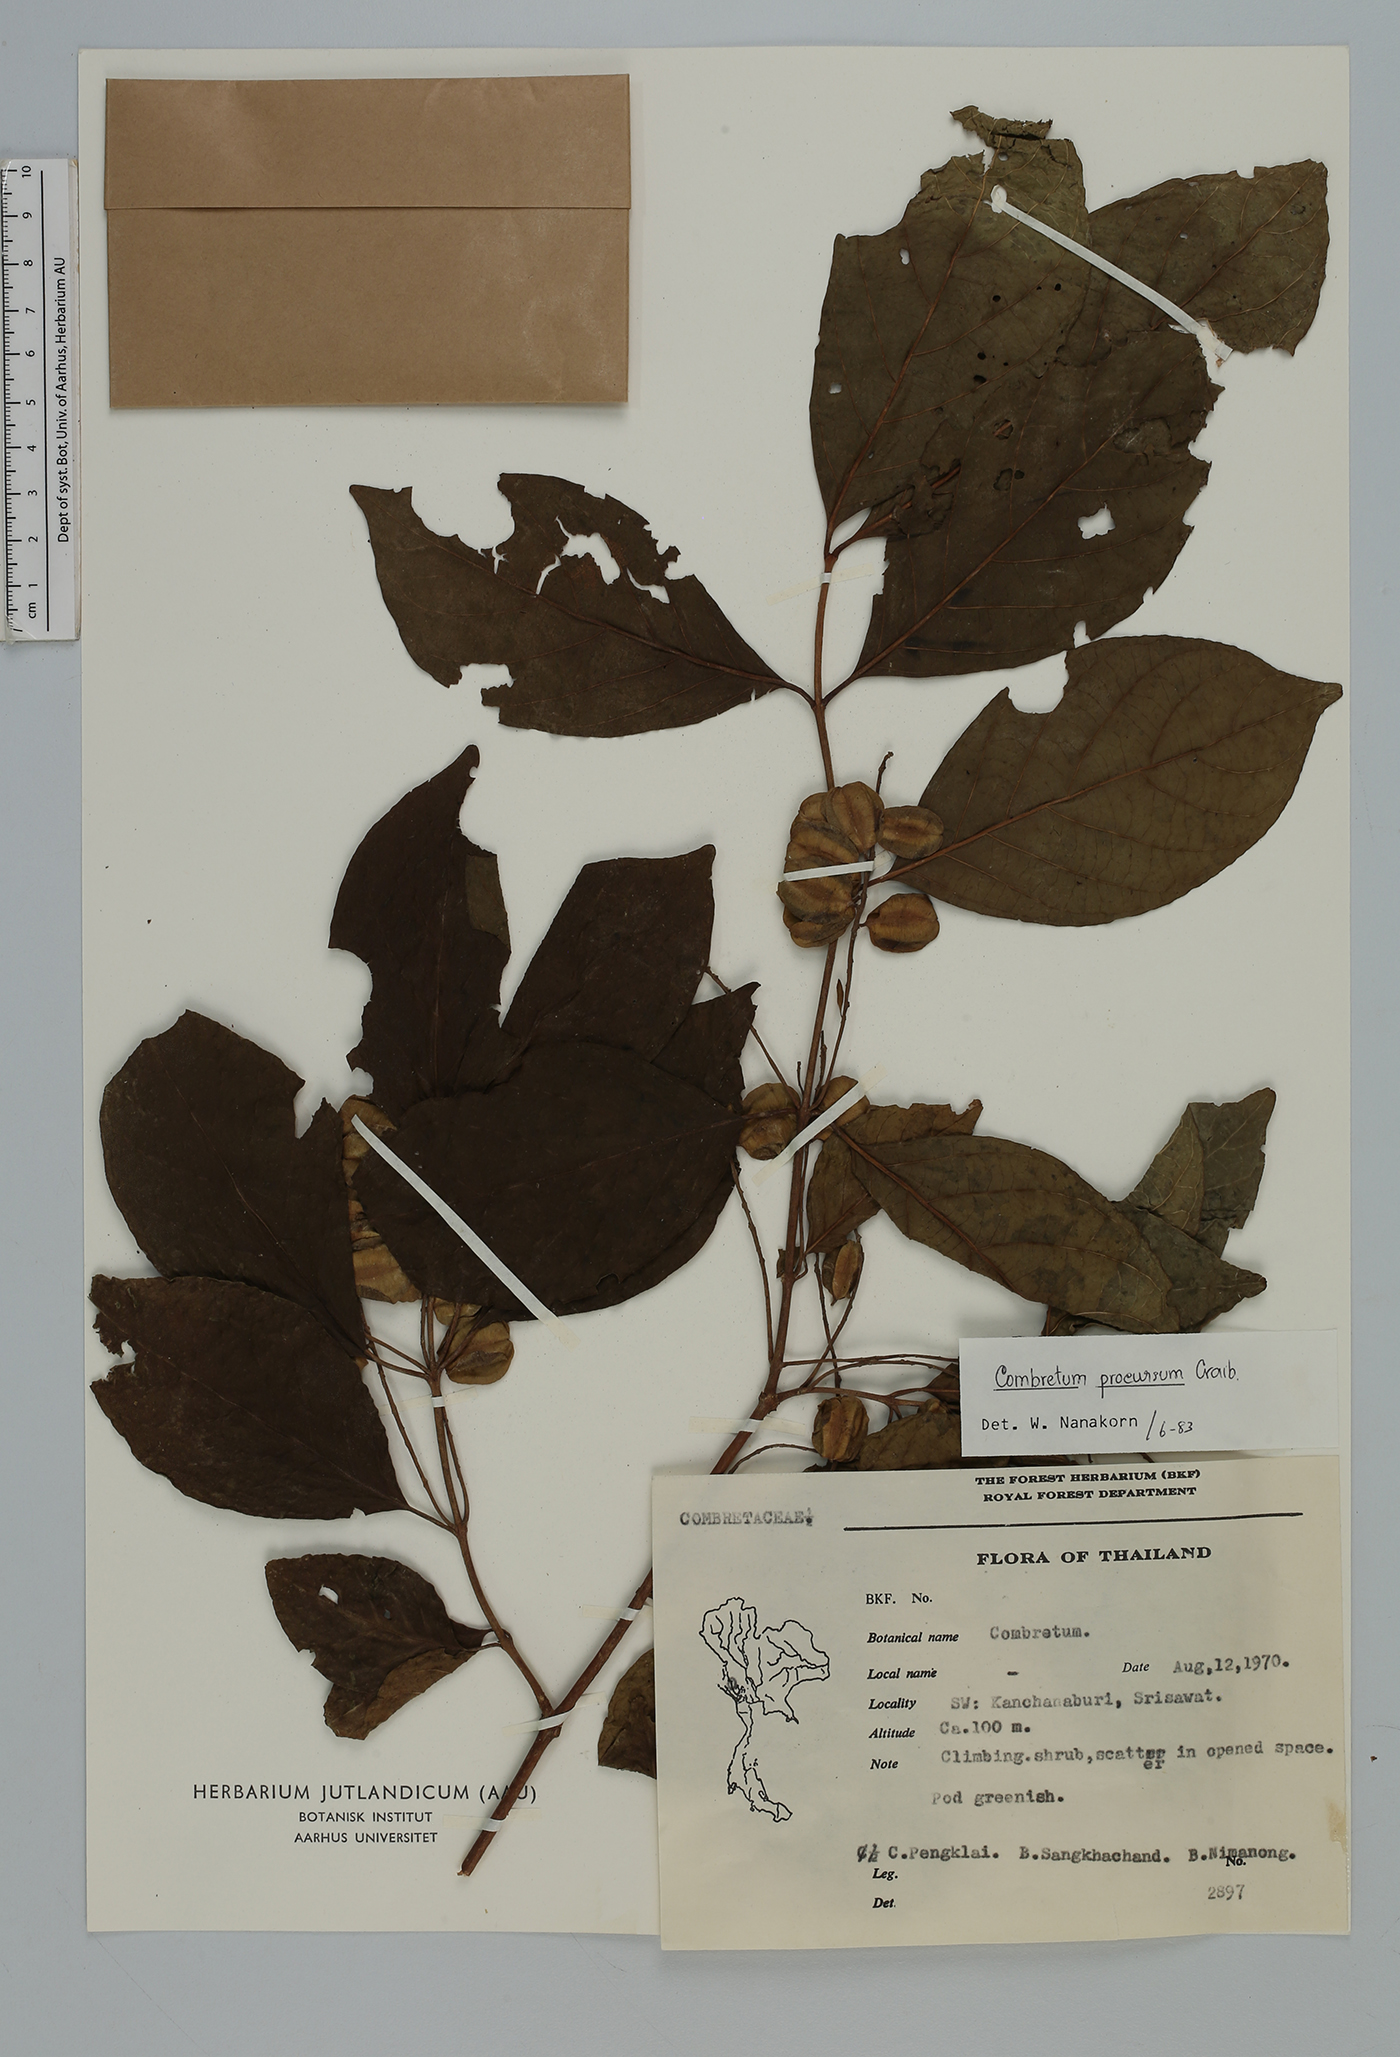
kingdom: Plantae
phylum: Tracheophyta
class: Magnoliopsida
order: Myrtales
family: Combretaceae
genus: Combretum
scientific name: Combretum procursum
